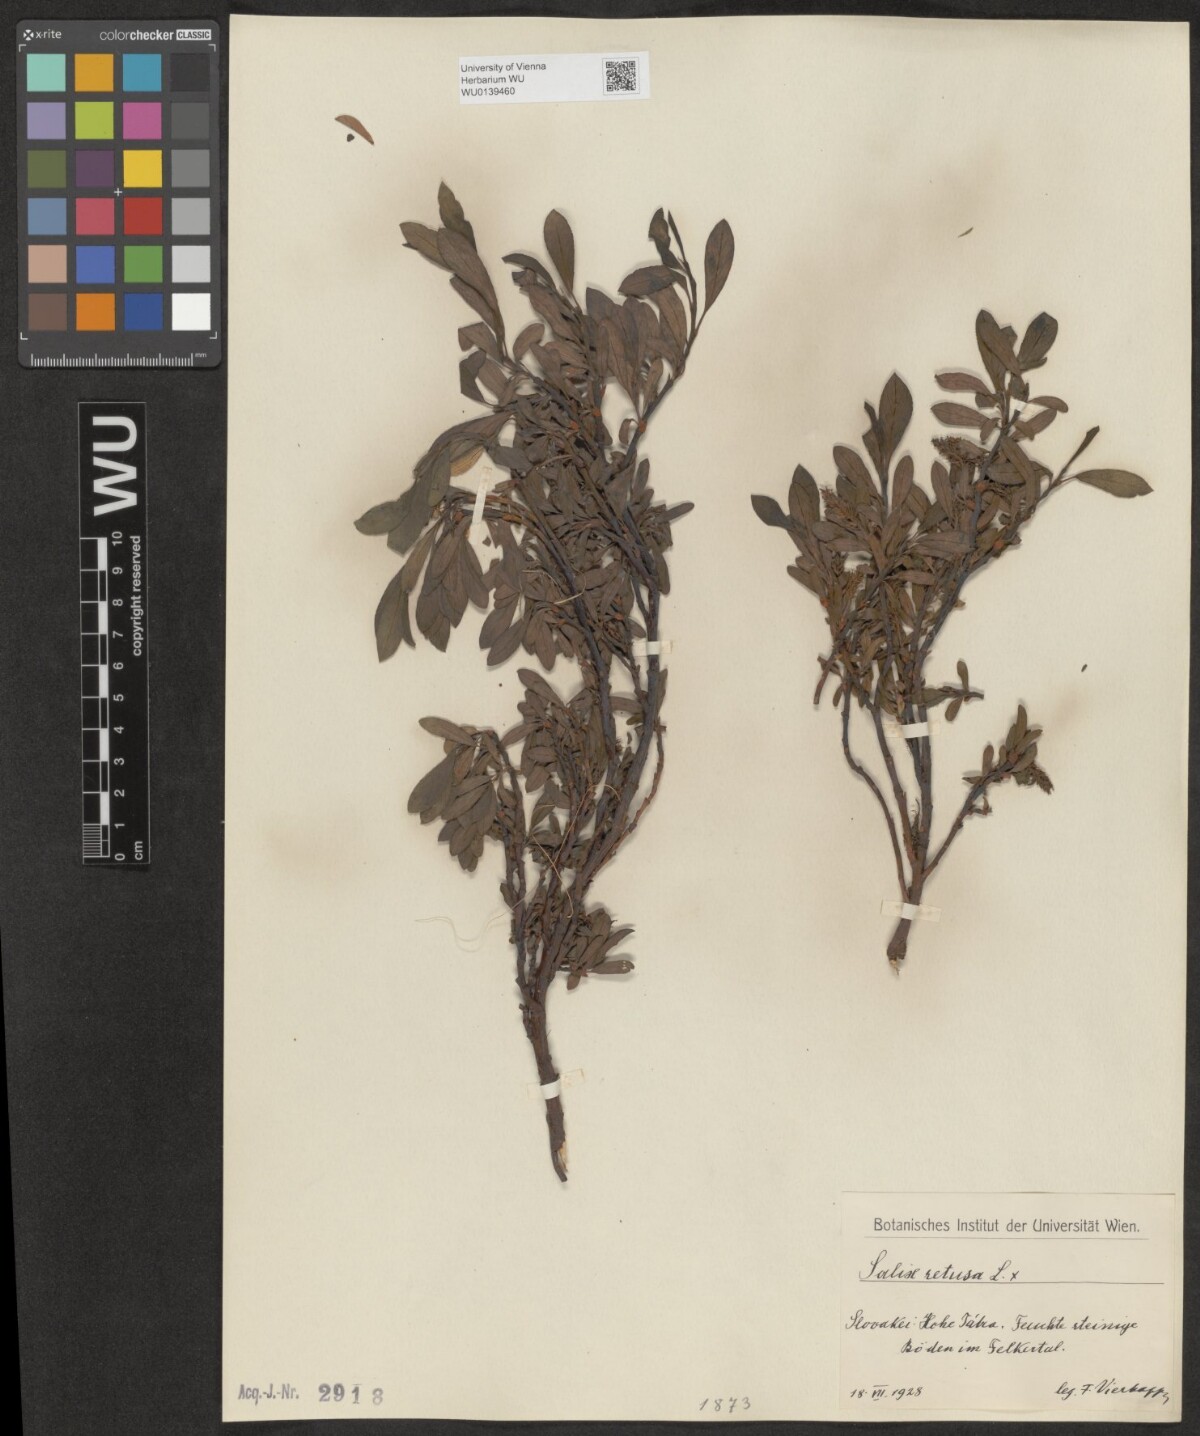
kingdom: Plantae
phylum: Tracheophyta
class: Magnoliopsida
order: Malpighiales
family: Salicaceae
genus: Salix
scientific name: Salix retusa
